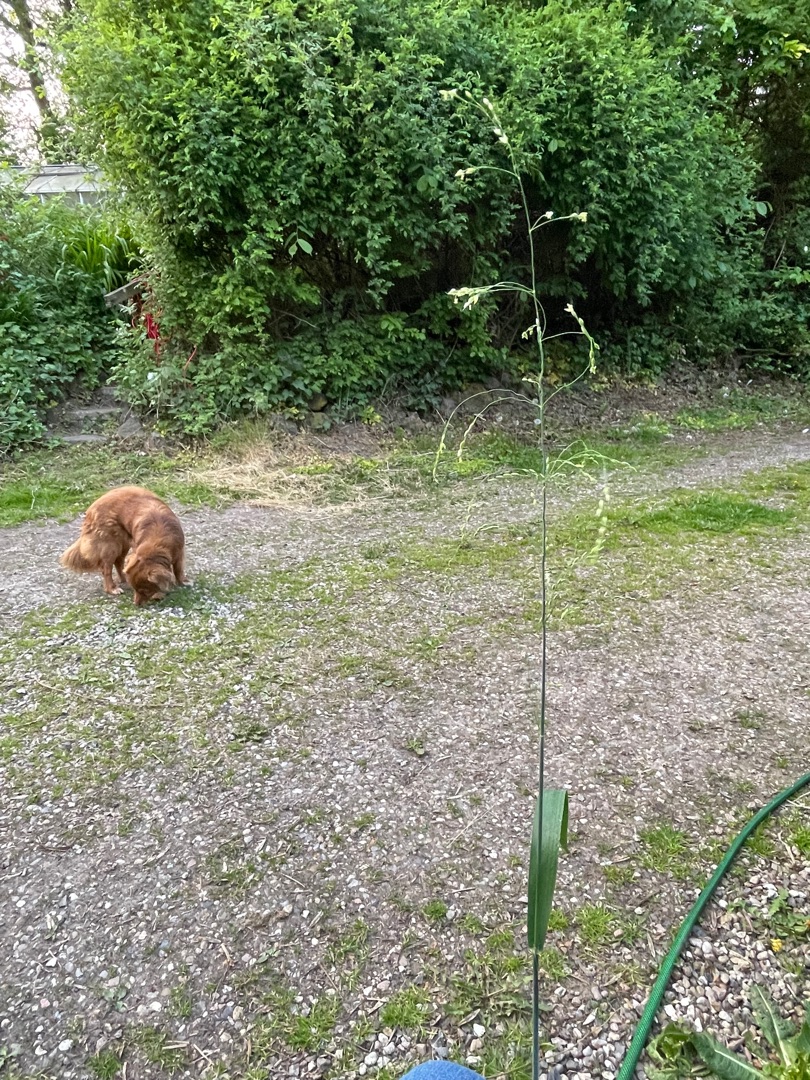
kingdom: Plantae
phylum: Tracheophyta
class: Liliopsida
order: Poales
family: Poaceae
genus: Milium
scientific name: Milium effusum
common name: Miliegræs
